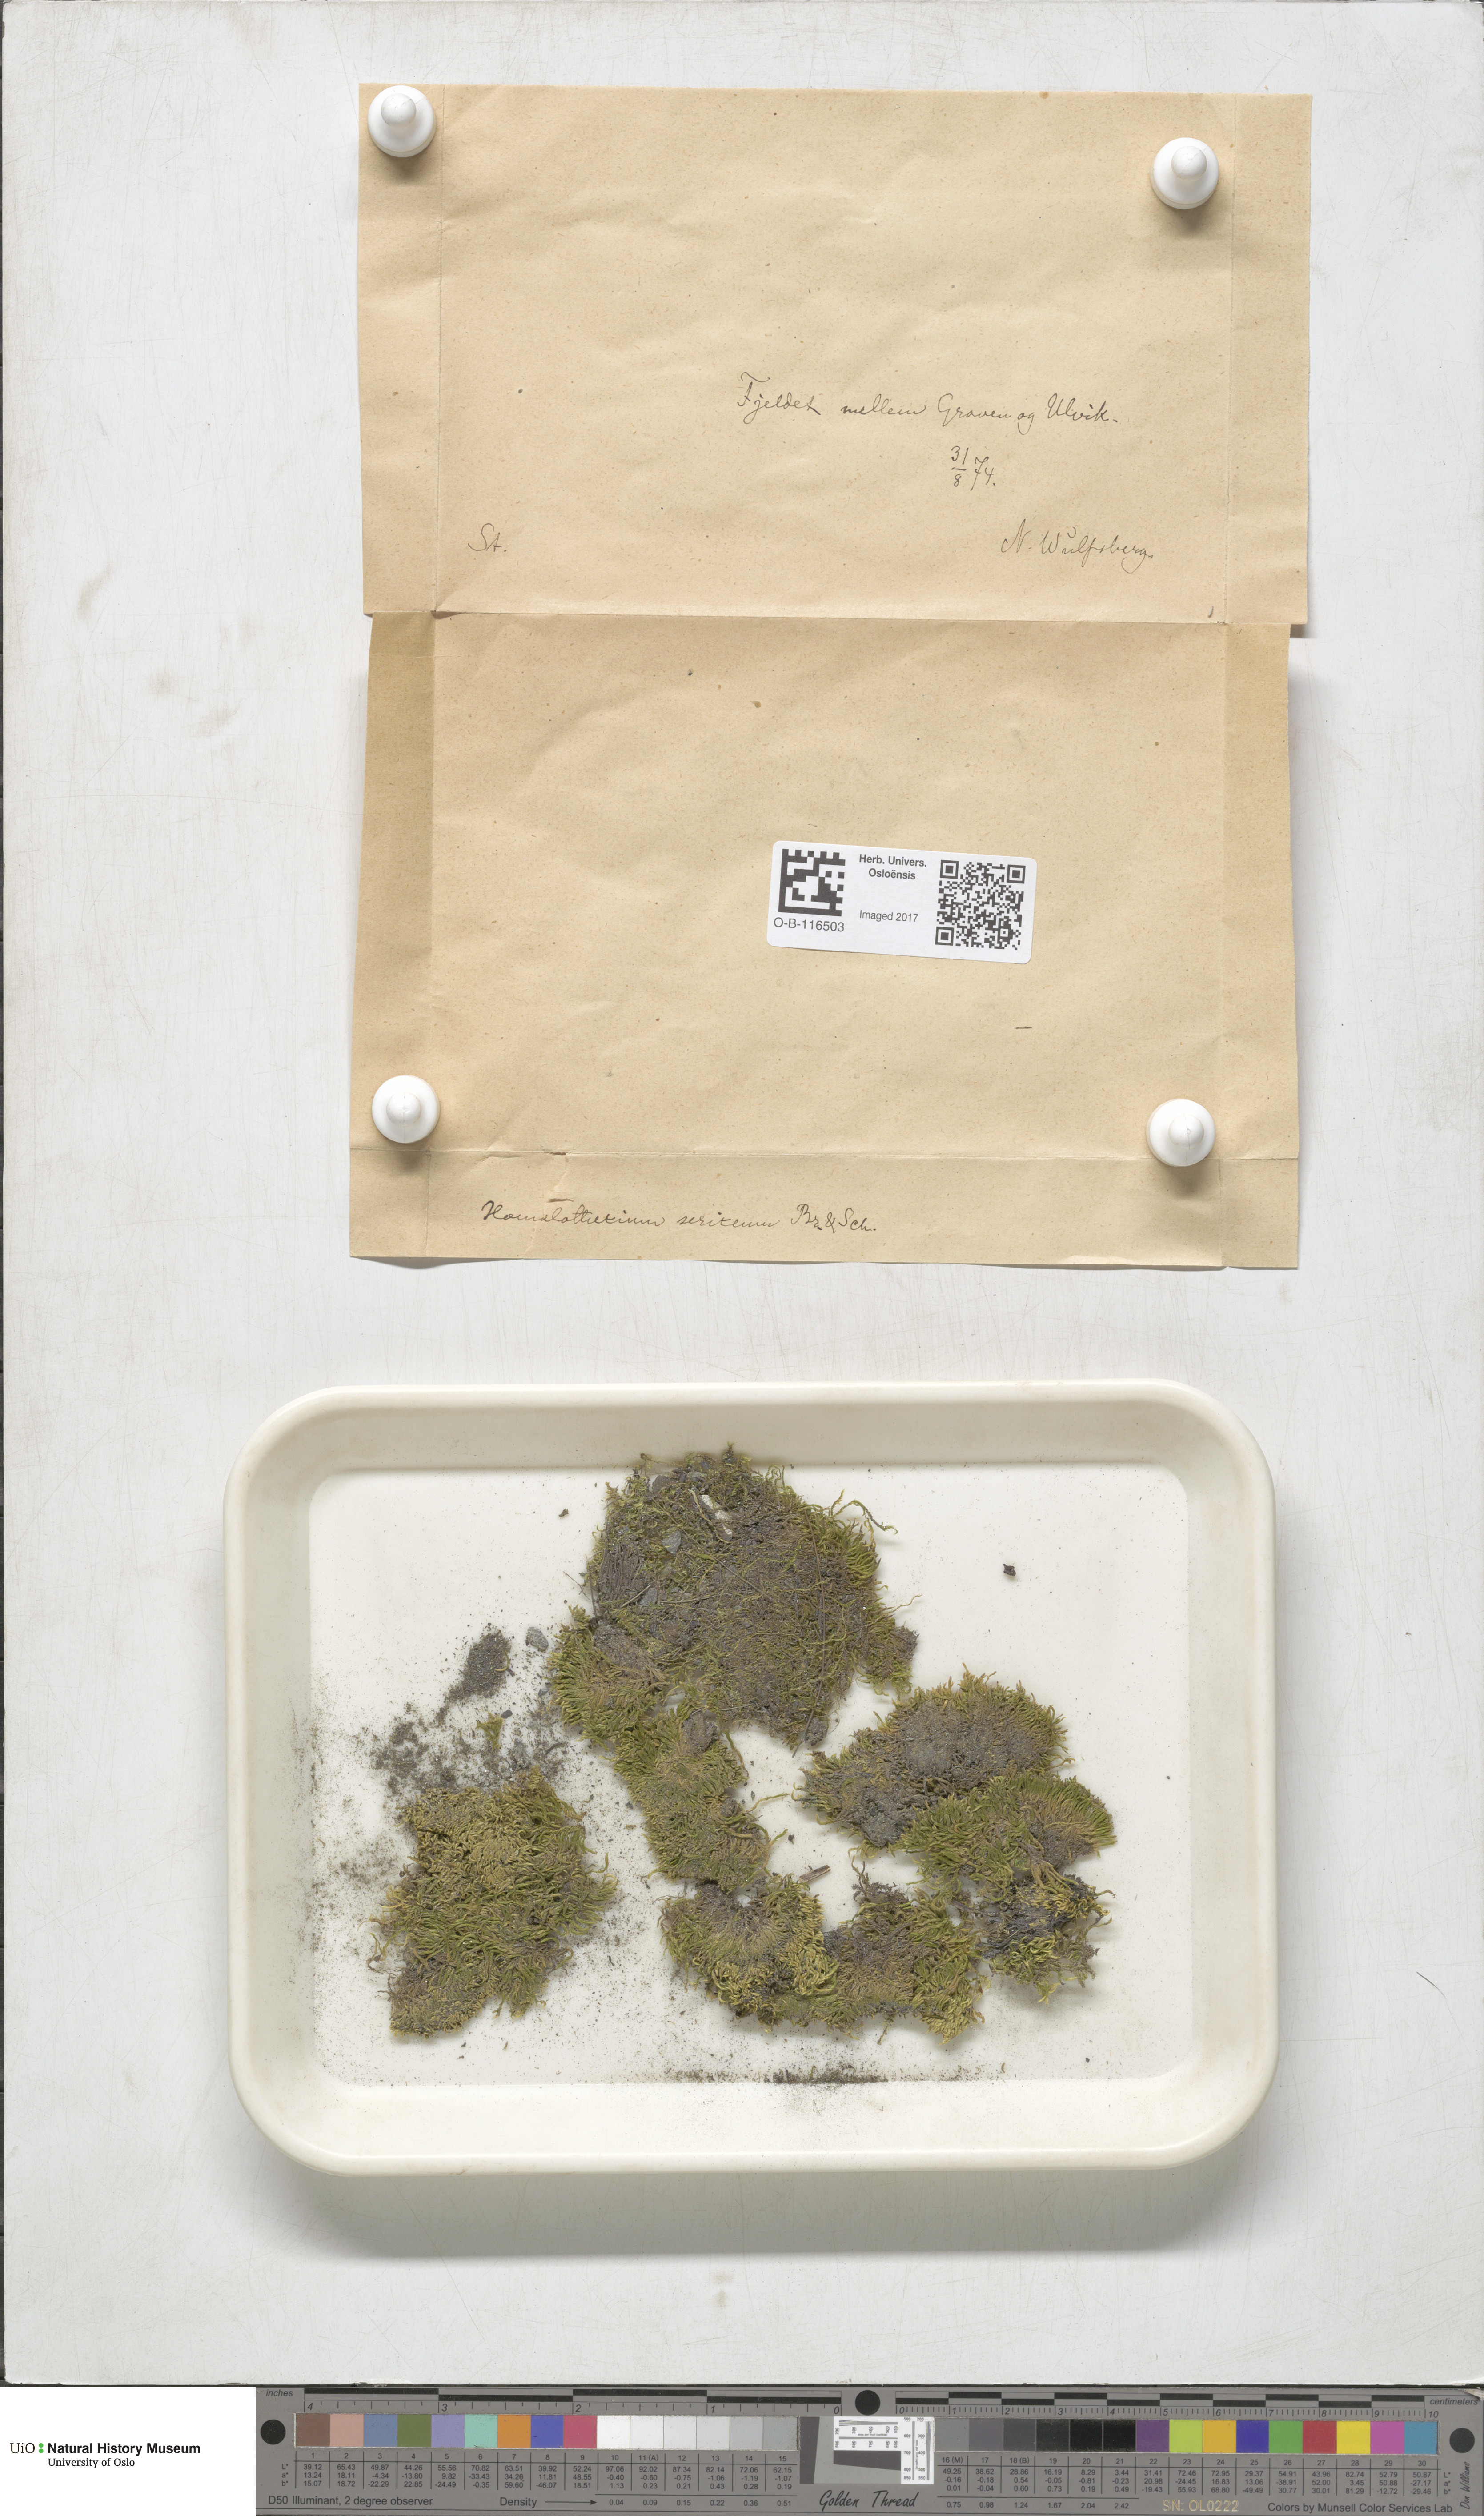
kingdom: Plantae
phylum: Bryophyta
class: Bryopsida
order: Hypnales
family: Brachytheciaceae
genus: Homalothecium
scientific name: Homalothecium sericeum
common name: Silky wall feather-moss
